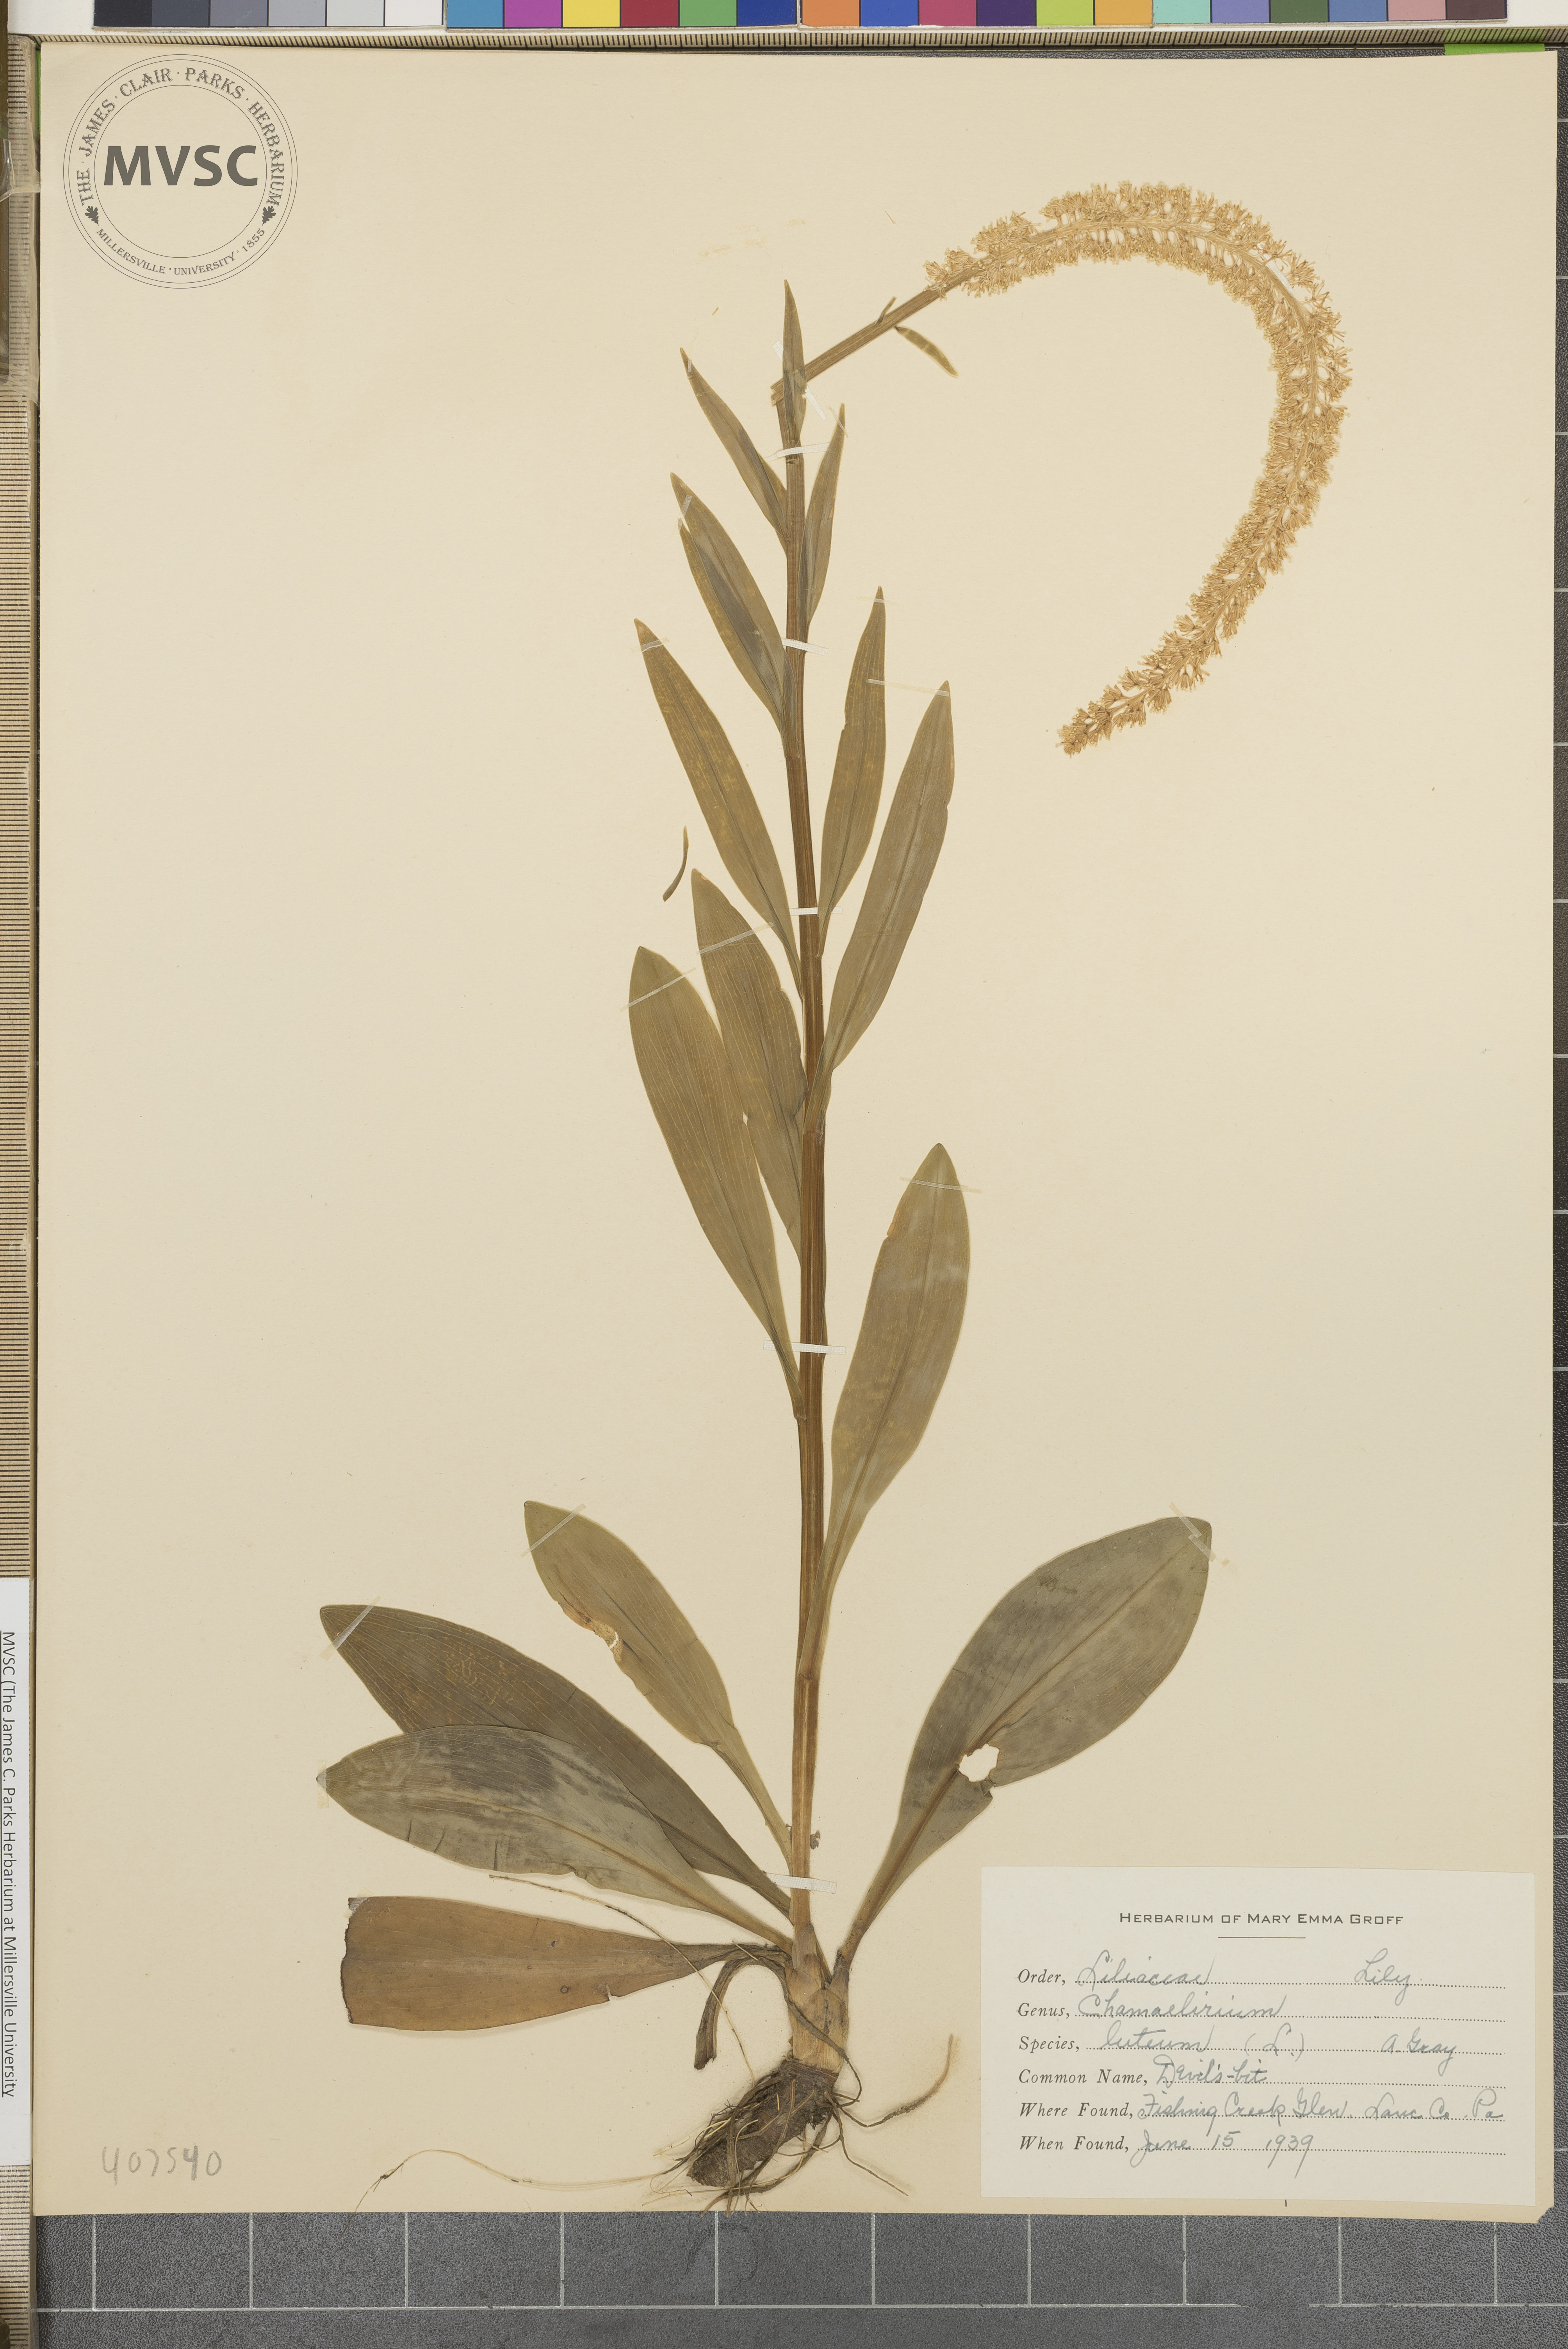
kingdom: Plantae
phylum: Tracheophyta
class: Liliopsida
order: Liliales
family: Melanthiaceae
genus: Chamaelirium
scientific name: Chamaelirium luteum
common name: Devil's bit
